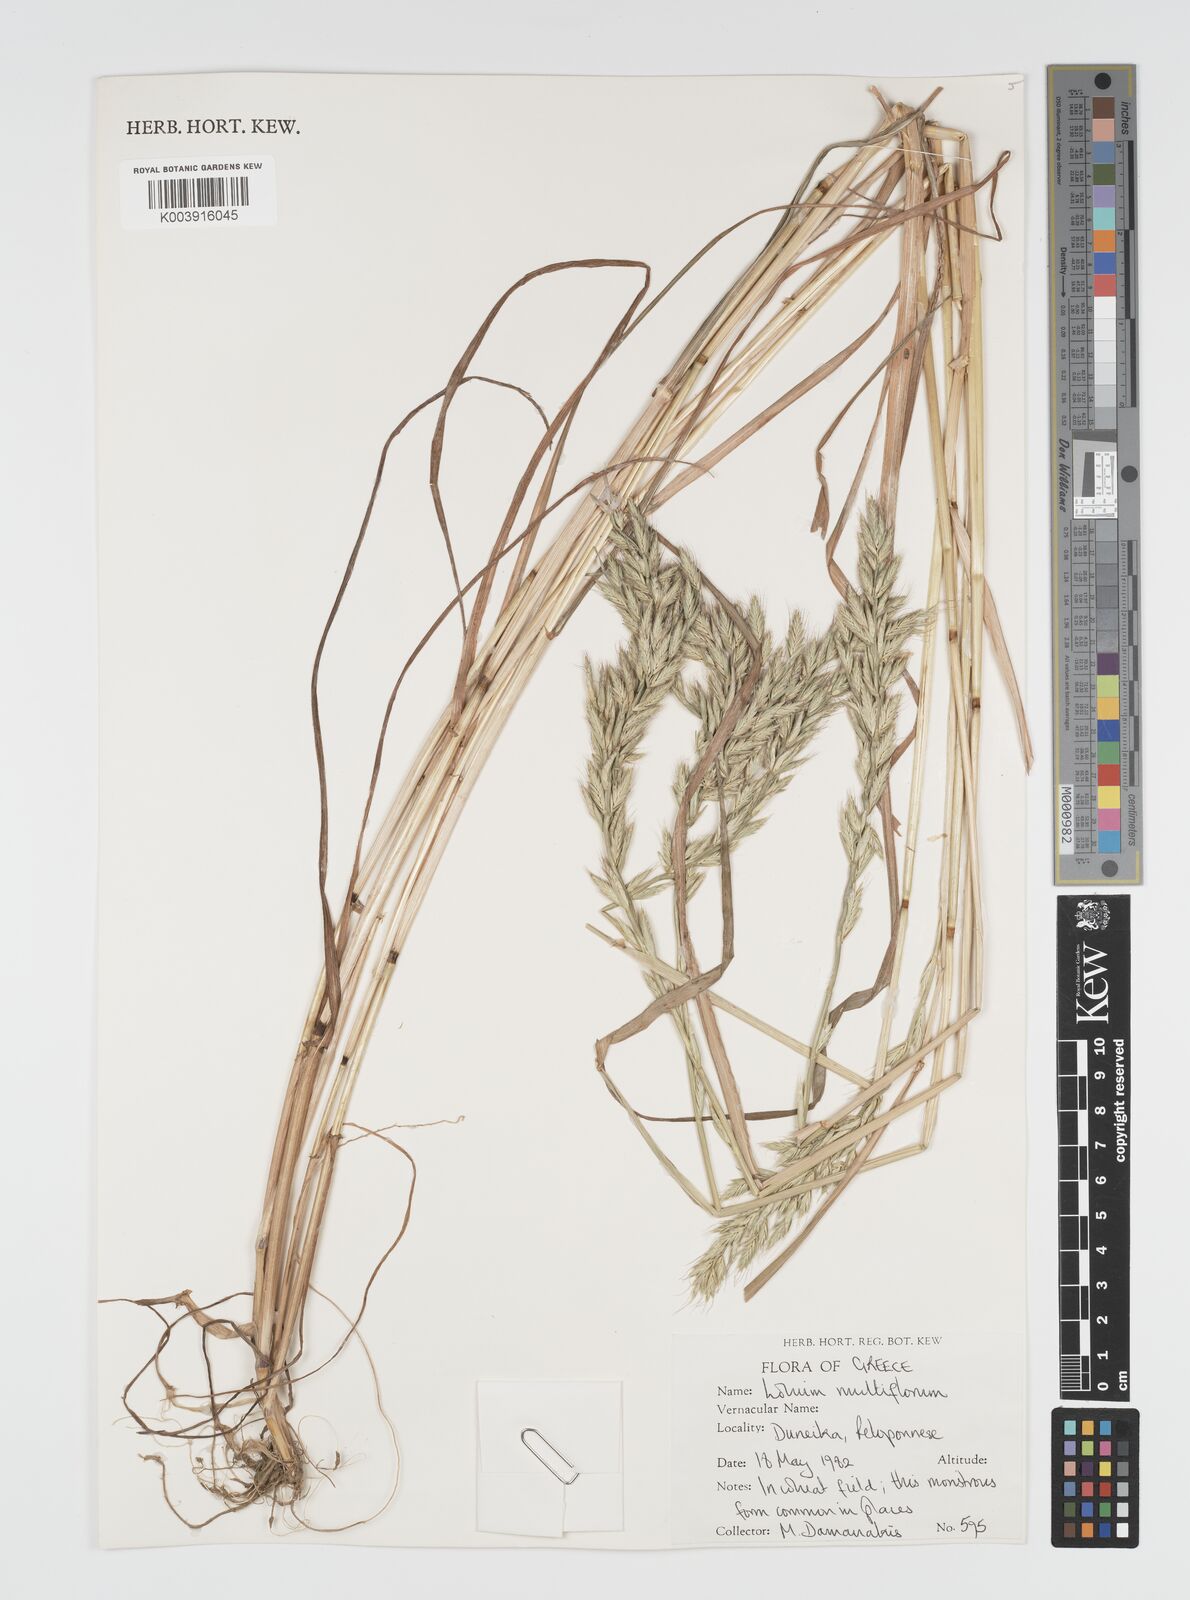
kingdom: Plantae
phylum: Tracheophyta
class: Liliopsida
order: Poales
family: Poaceae
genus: Lolium
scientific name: Lolium multiflorum
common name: Annual ryegrass
